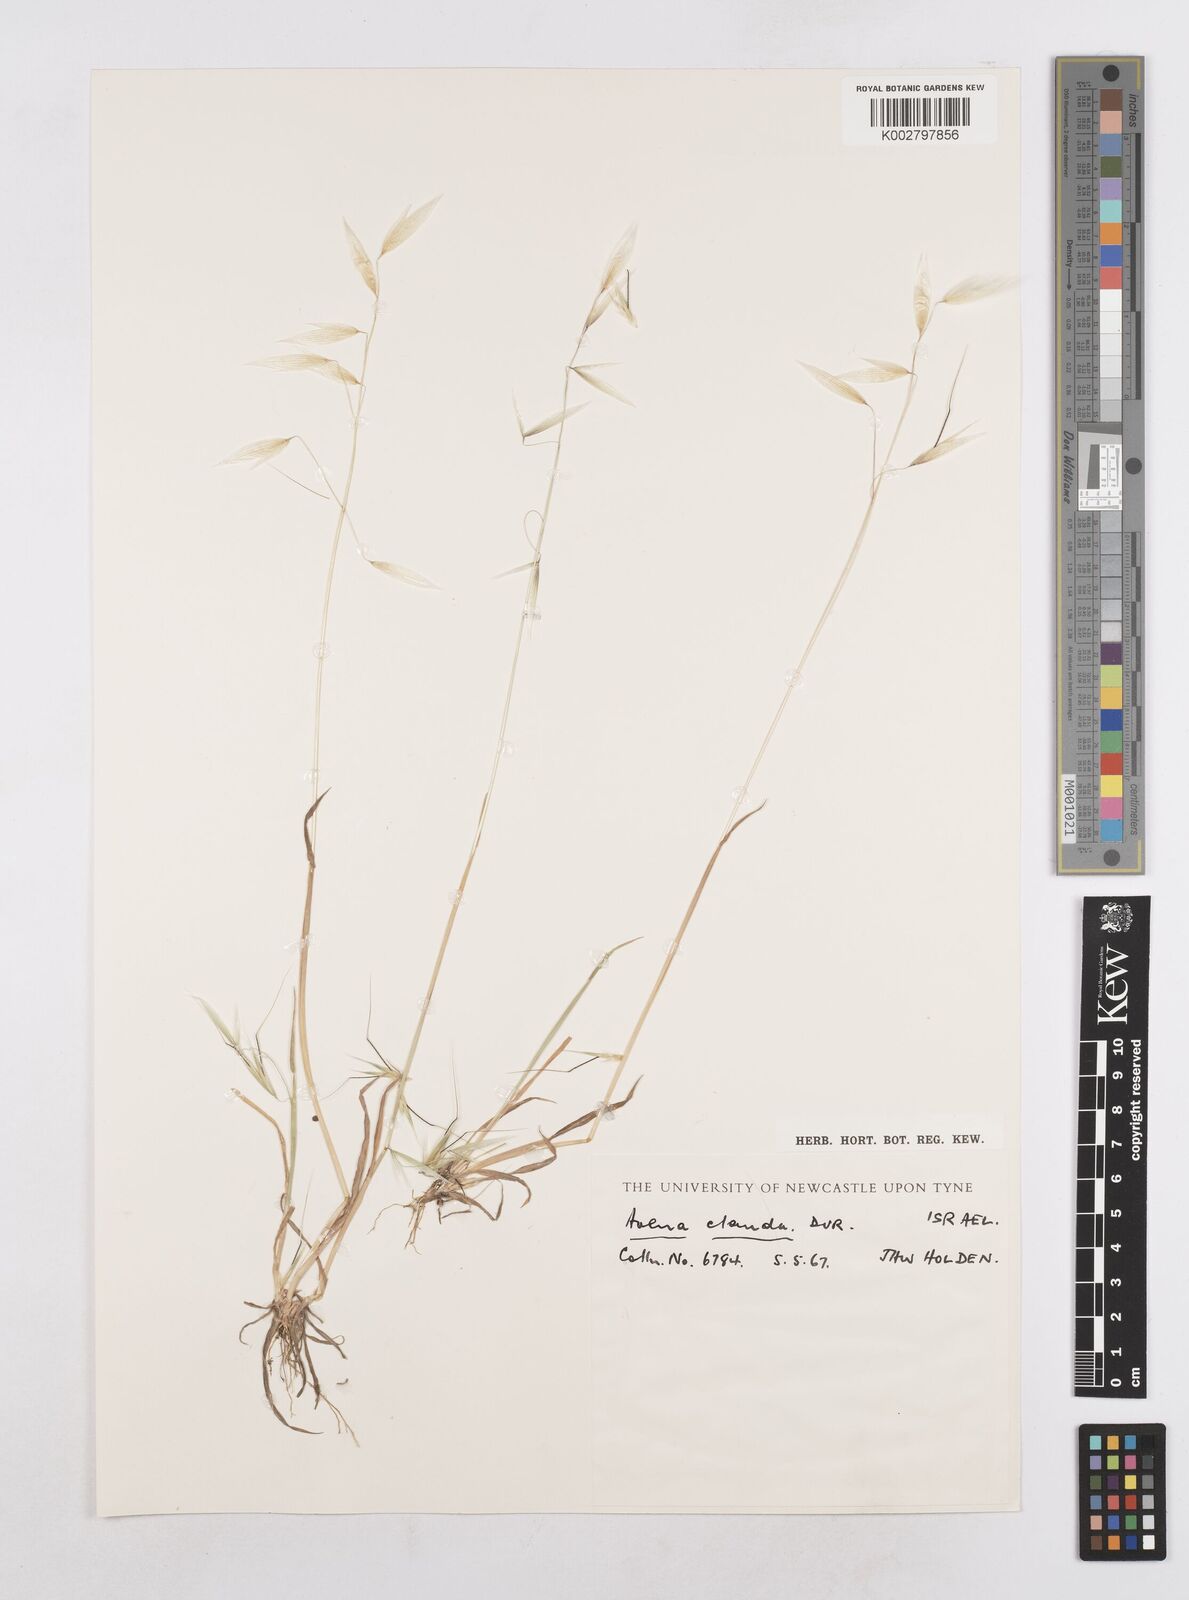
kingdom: Plantae
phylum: Tracheophyta
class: Liliopsida
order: Poales
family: Poaceae
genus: Avena
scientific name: Avena clauda
